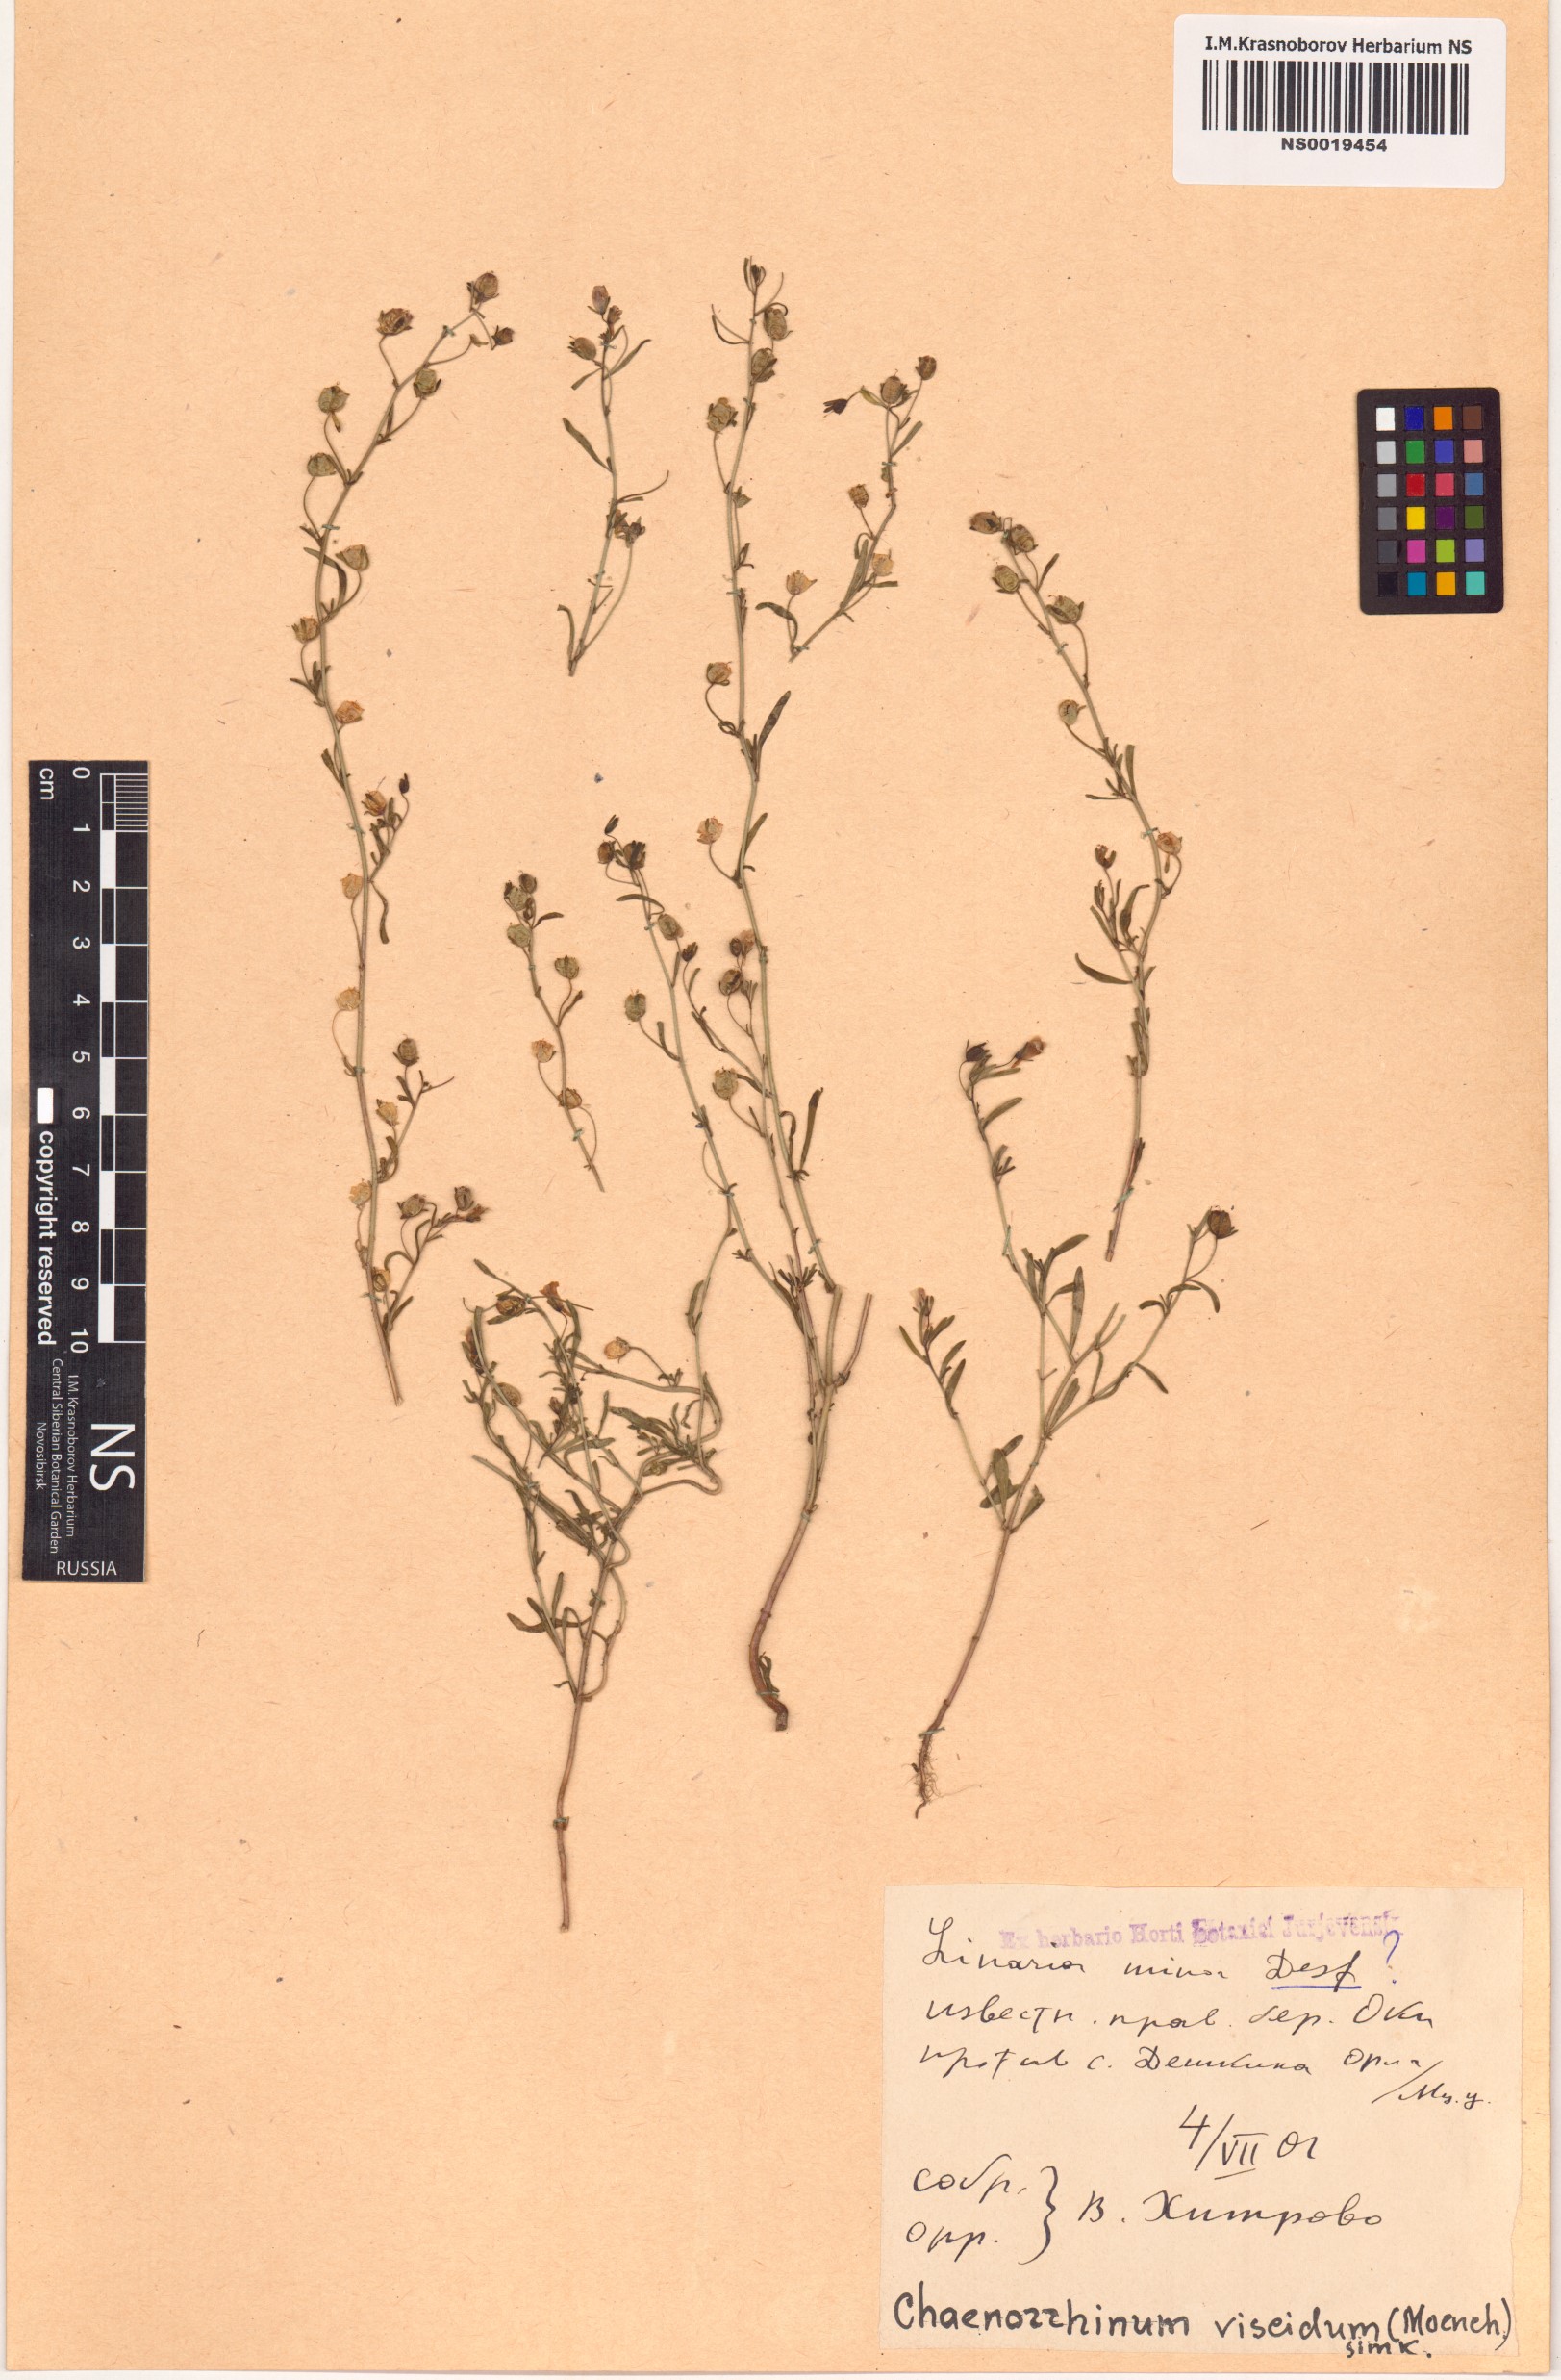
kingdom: Plantae
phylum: Tracheophyta
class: Magnoliopsida
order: Lamiales
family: Plantaginaceae
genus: Chaenorhinum
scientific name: Chaenorhinum minus
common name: Dwarf snapdragon
